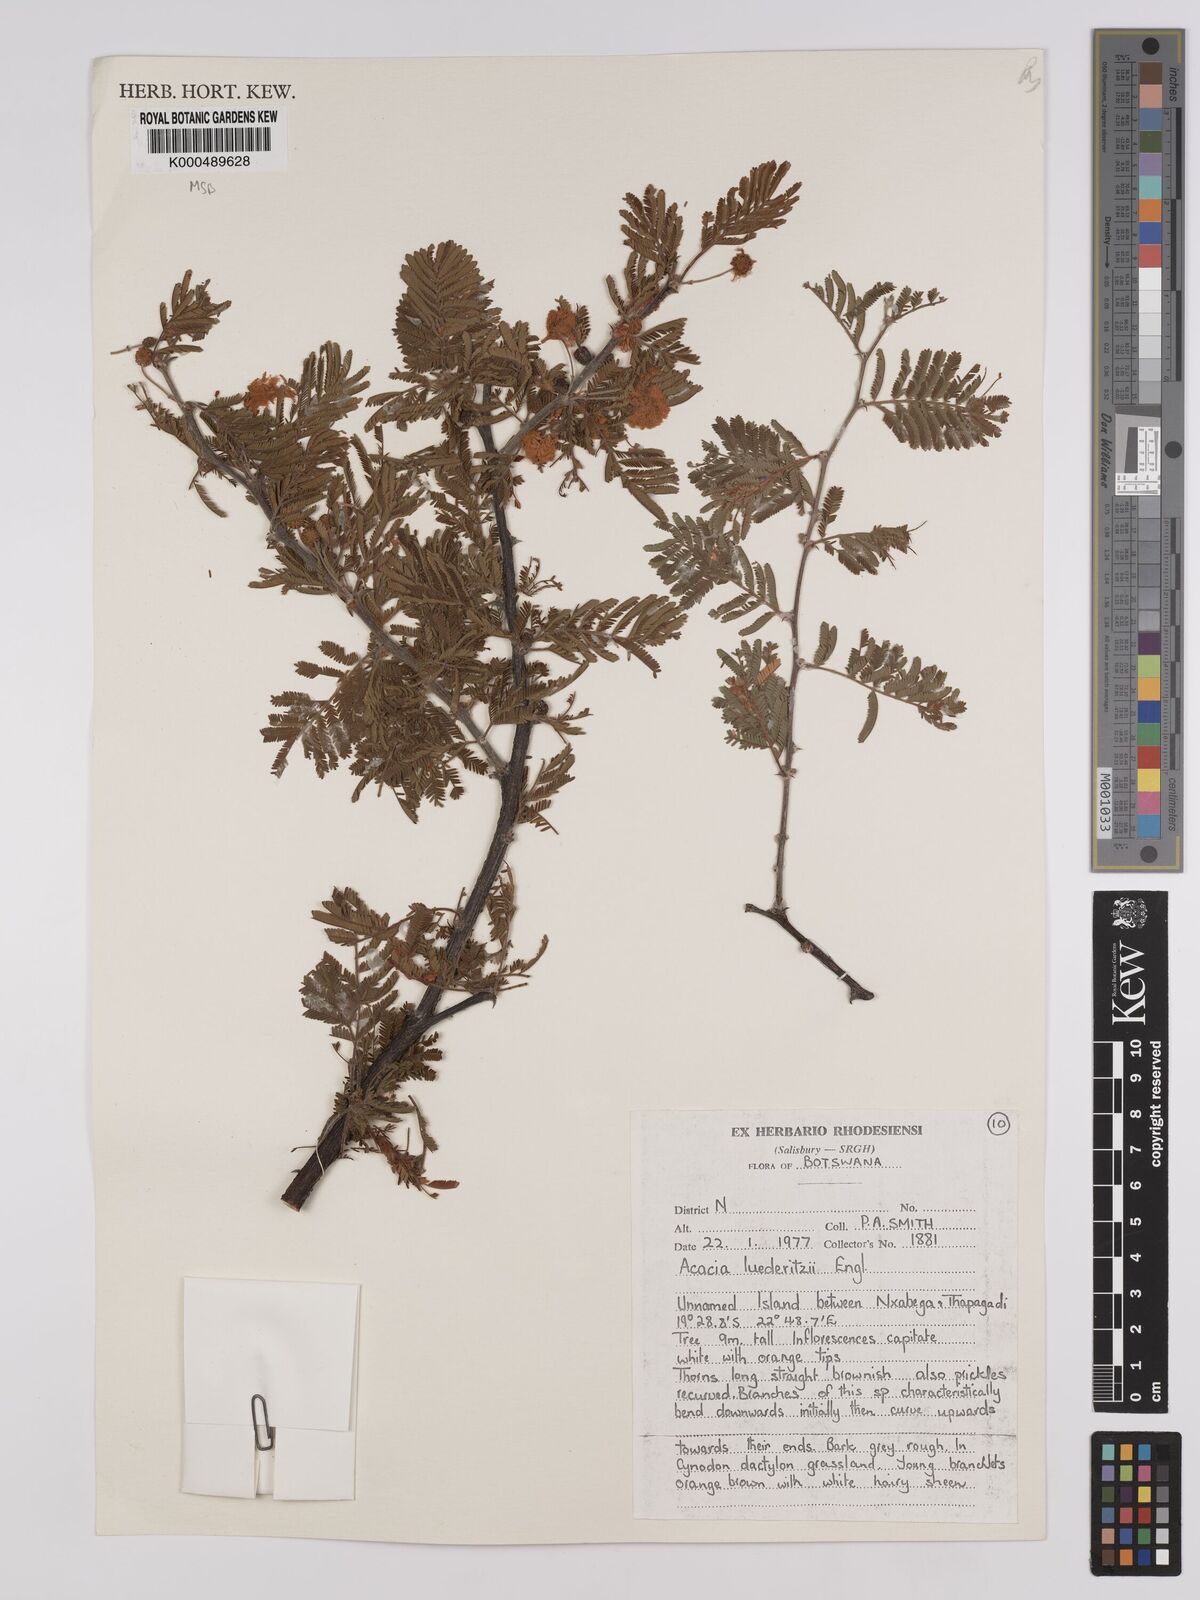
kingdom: Plantae
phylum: Tracheophyta
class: Magnoliopsida
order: Fabales
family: Fabaceae
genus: Vachellia
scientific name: Vachellia
